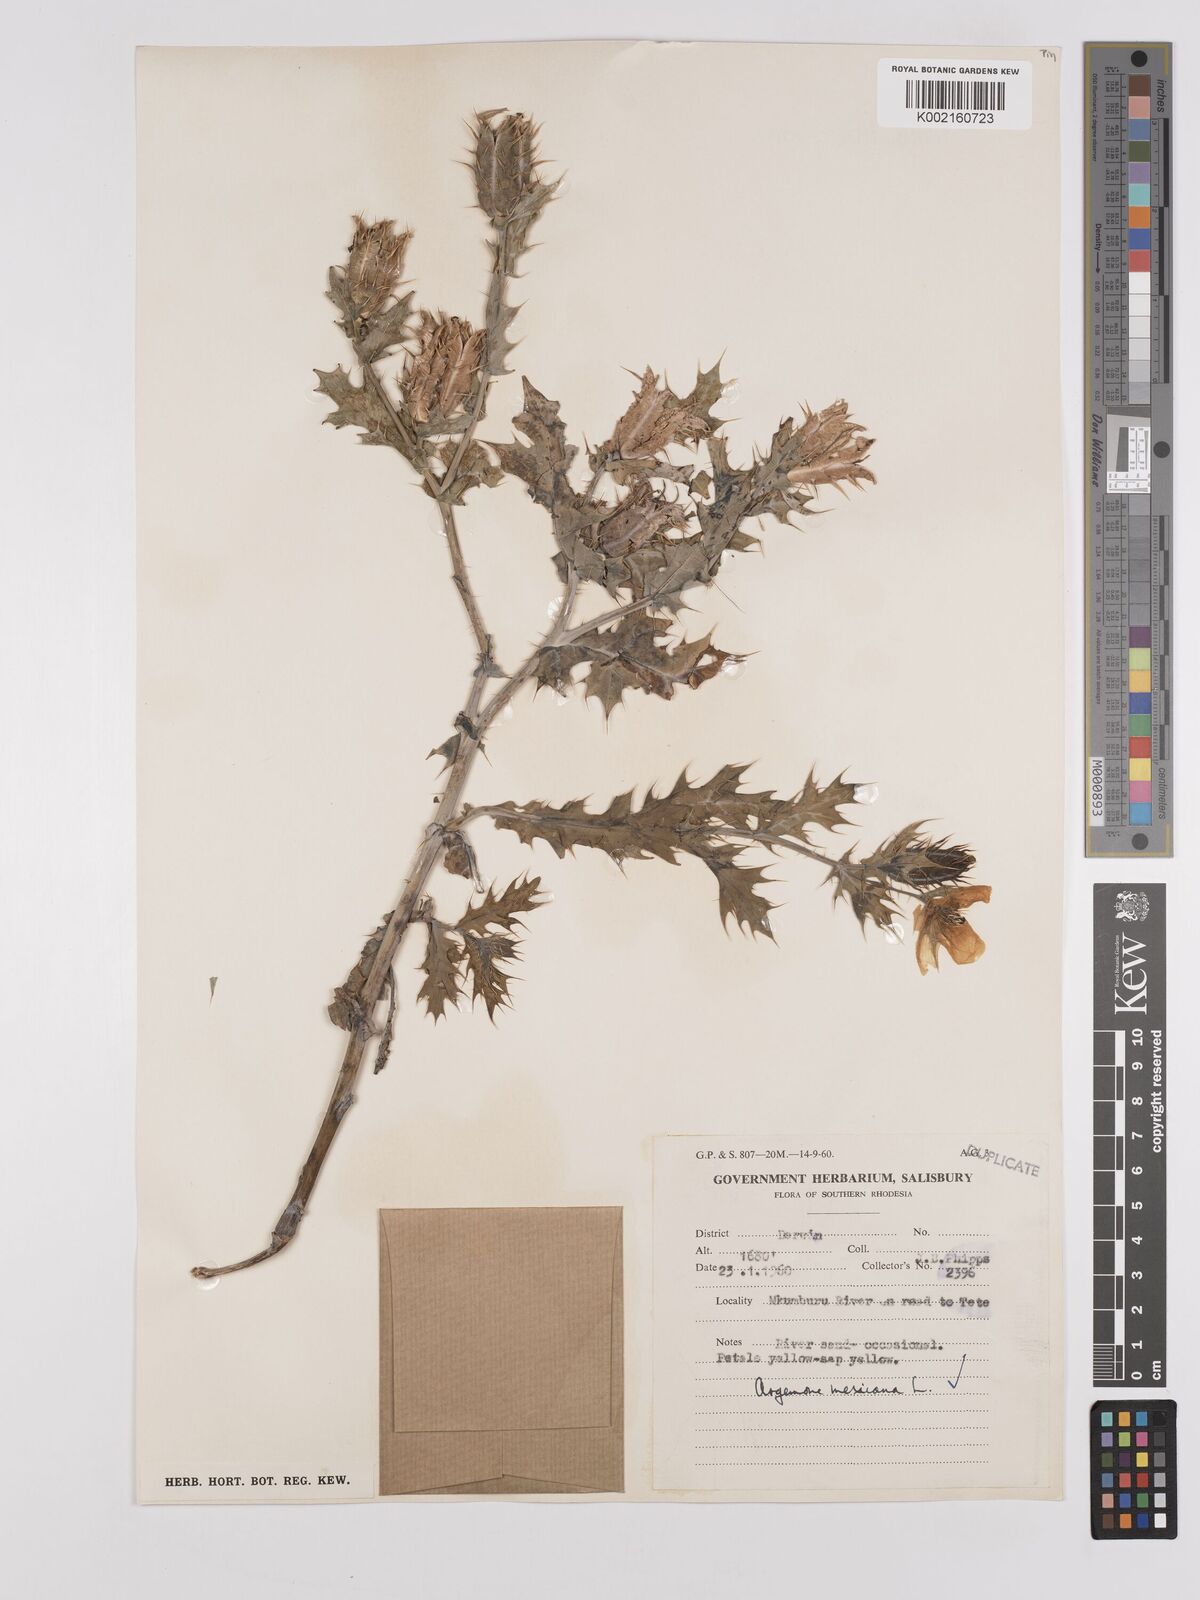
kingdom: Plantae
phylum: Tracheophyta
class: Magnoliopsida
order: Ranunculales
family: Papaveraceae
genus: Argemone
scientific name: Argemone mexicana
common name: Mexican poppy
